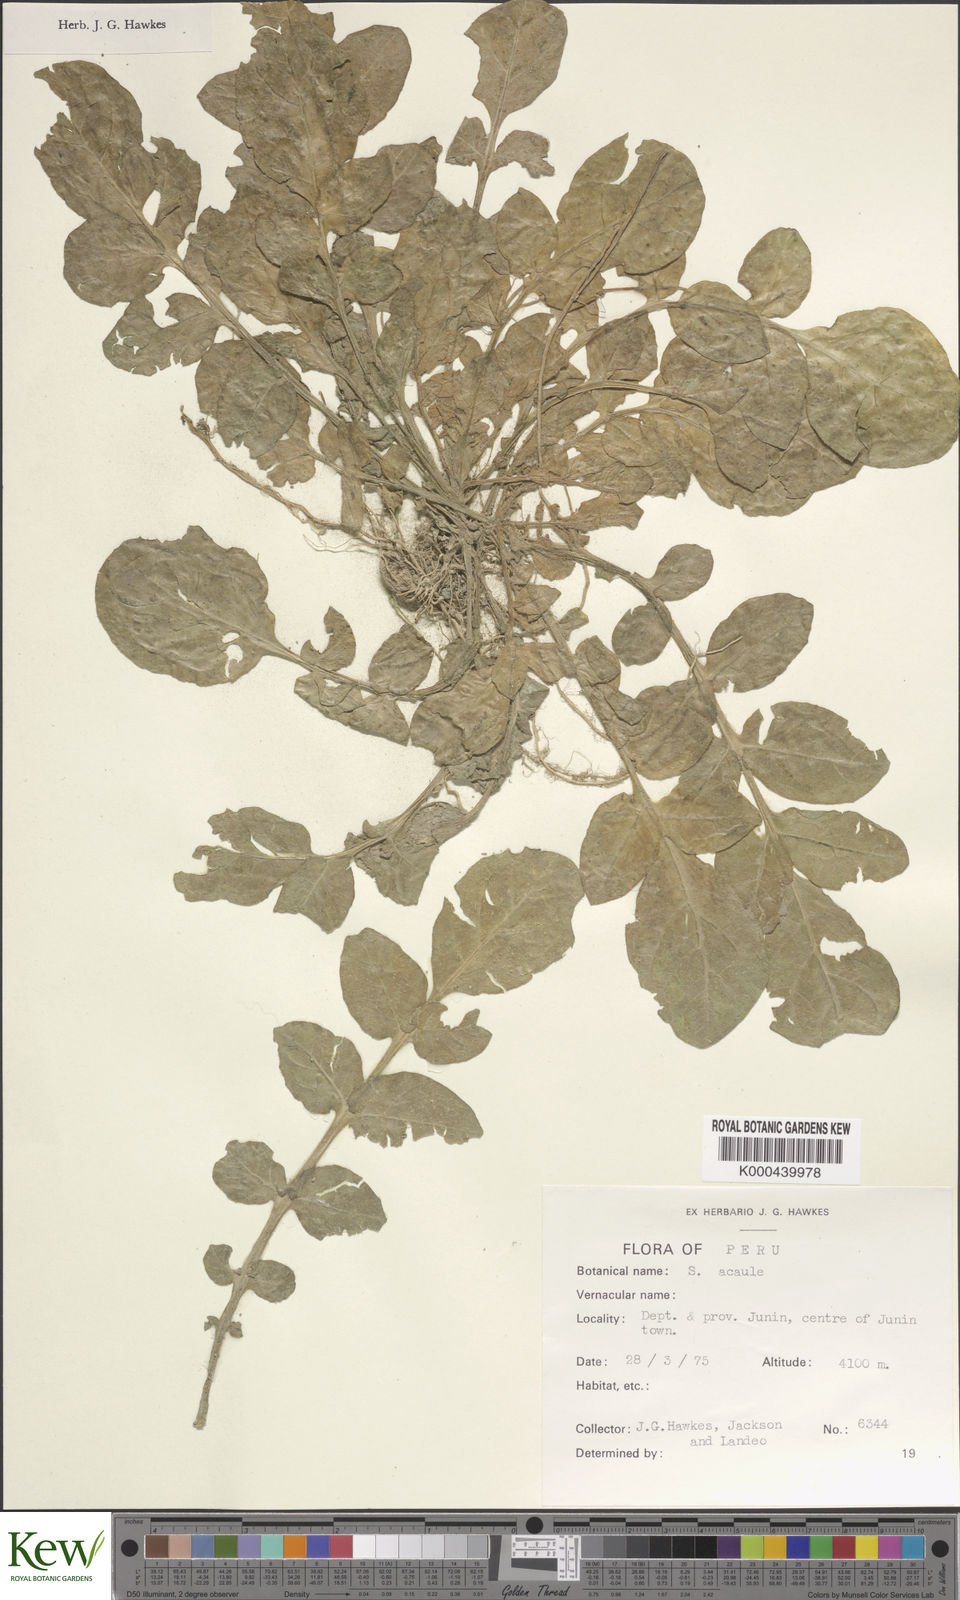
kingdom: Plantae
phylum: Tracheophyta
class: Magnoliopsida
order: Solanales
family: Solanaceae
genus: Solanum
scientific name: Solanum acaule
